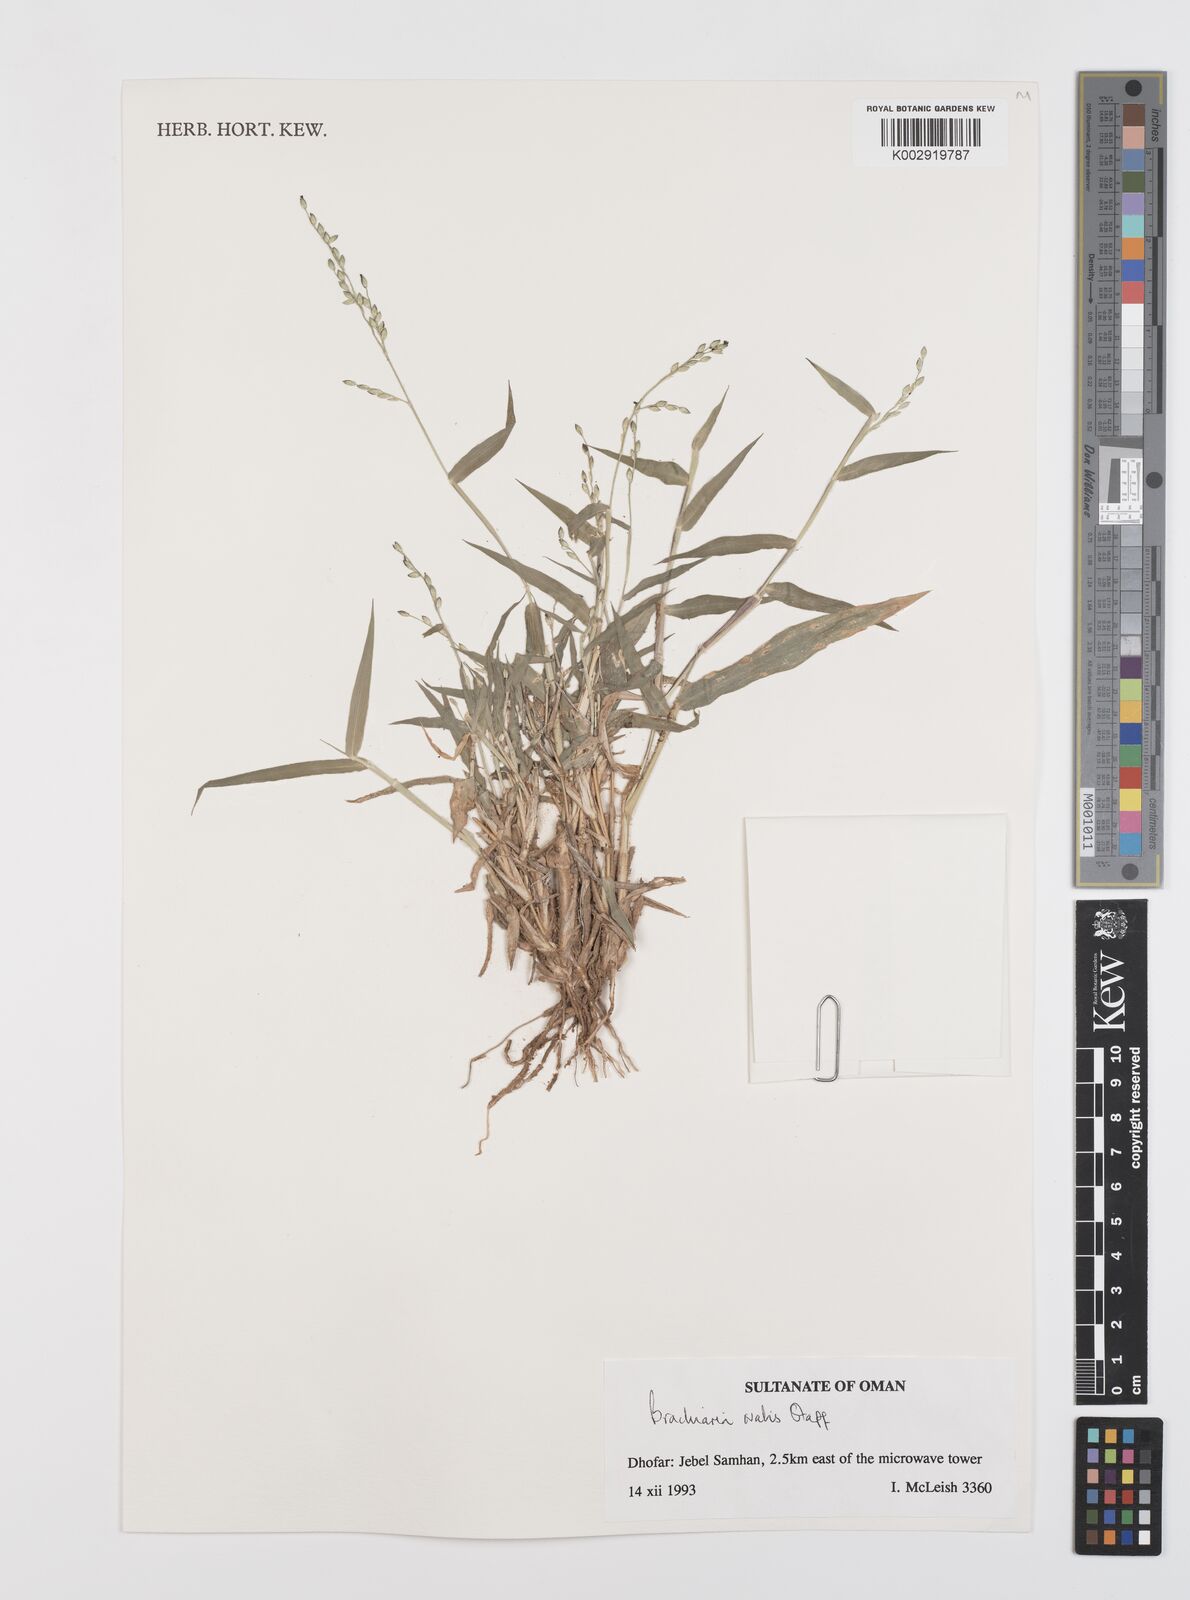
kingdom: Plantae
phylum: Tracheophyta
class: Liliopsida
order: Poales
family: Poaceae
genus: Urochloa
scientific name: Urochloa ovalis
